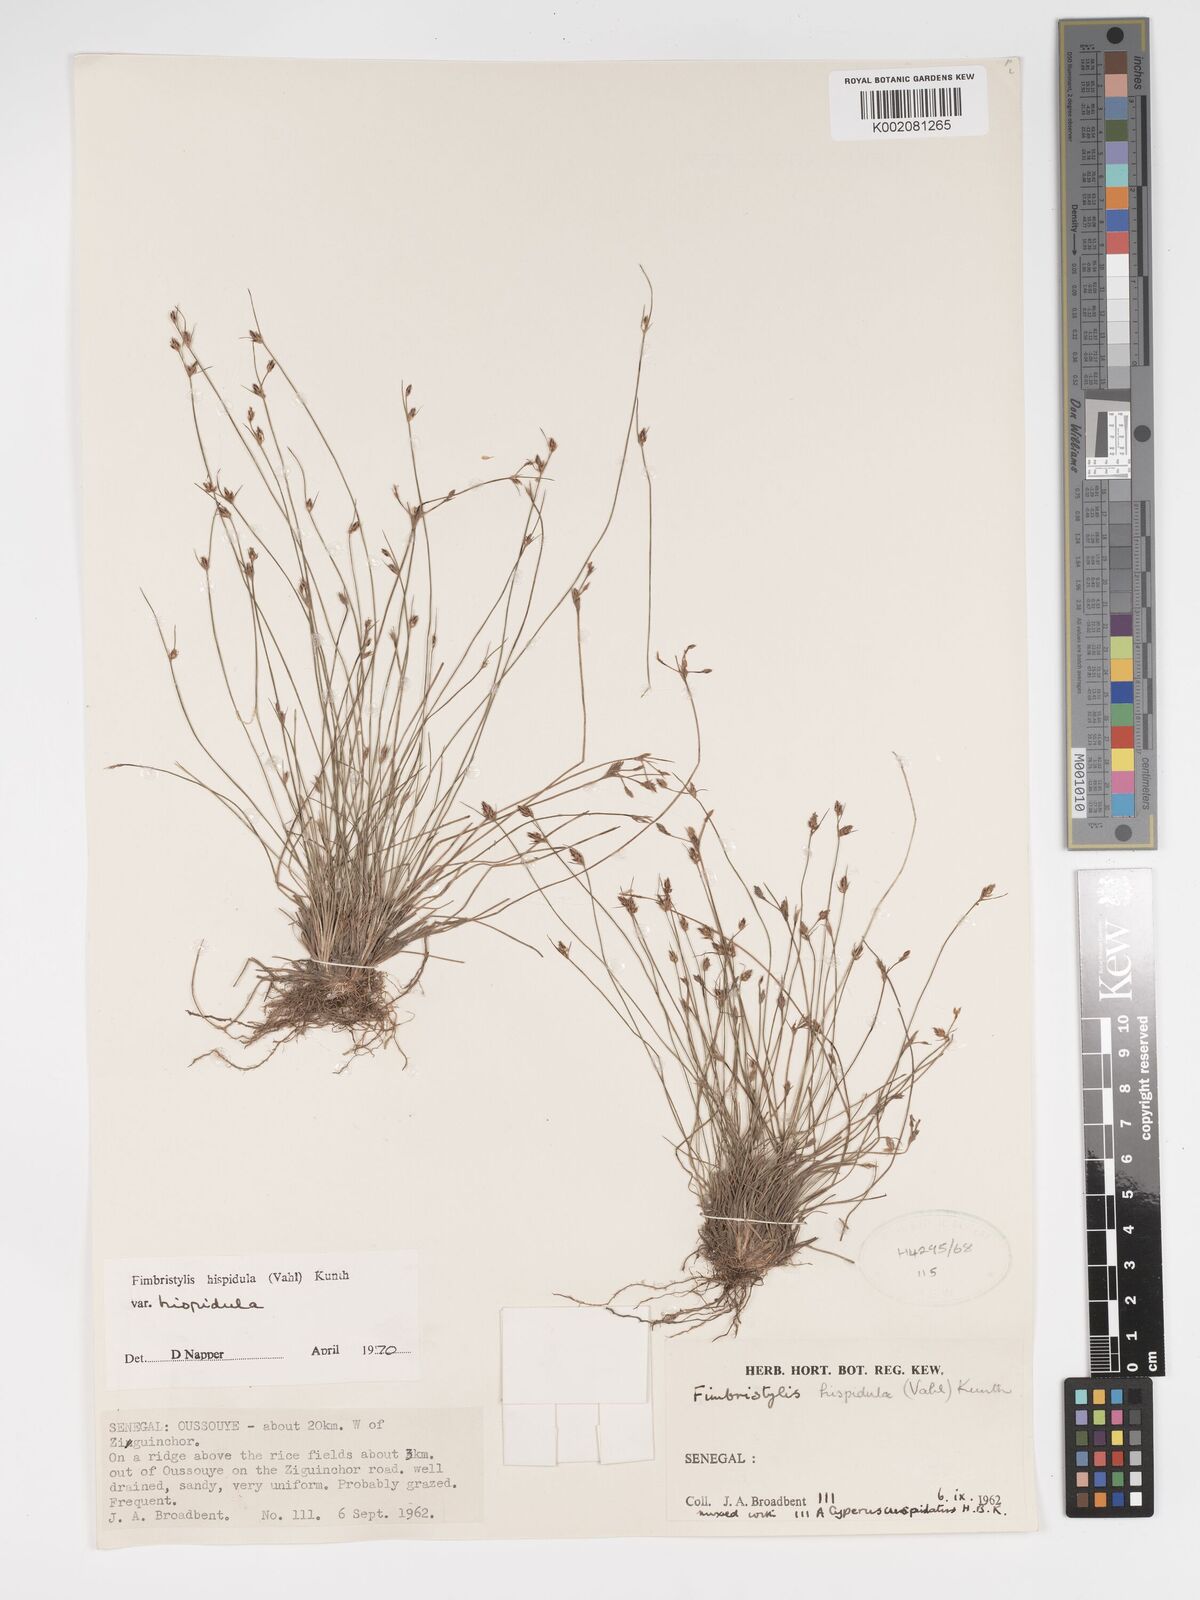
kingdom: Plantae
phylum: Tracheophyta
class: Liliopsida
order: Poales
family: Cyperaceae
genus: Bulbostylis
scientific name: Bulbostylis hispidula
